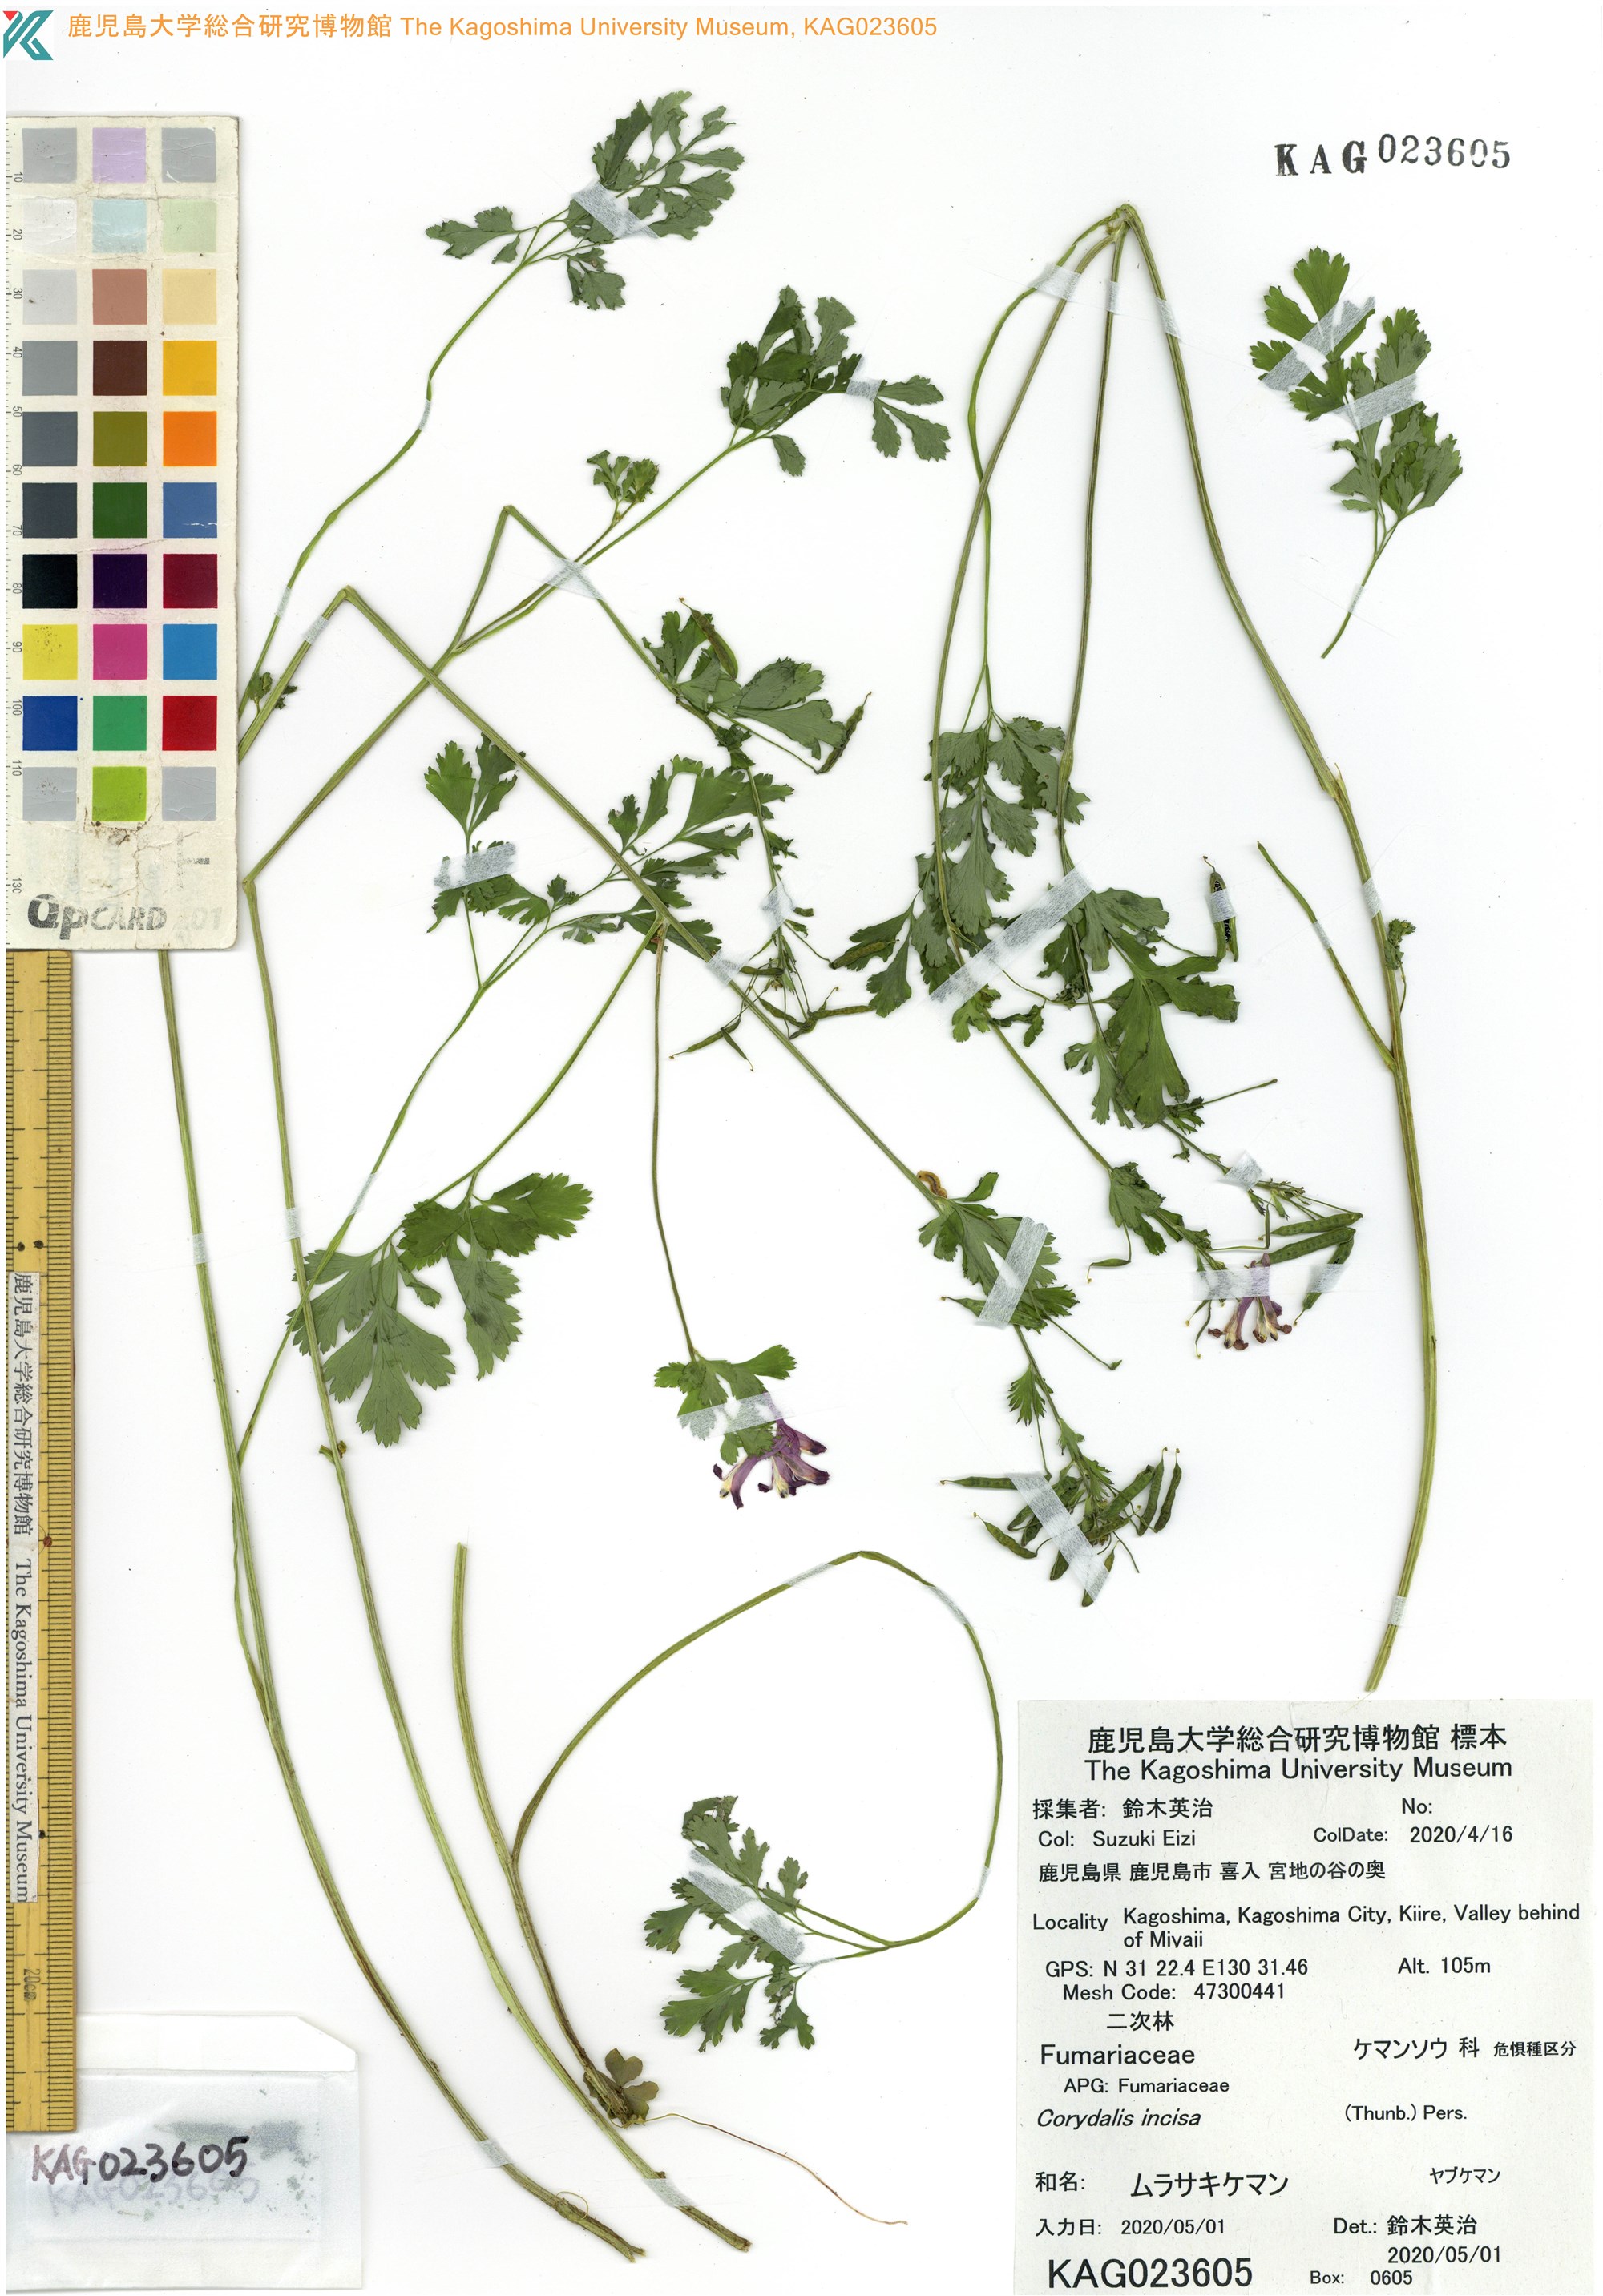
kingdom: Plantae
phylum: Tracheophyta
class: Magnoliopsida
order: Ranunculales
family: Papaveraceae
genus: Corydalis
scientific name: Corydalis incisa
